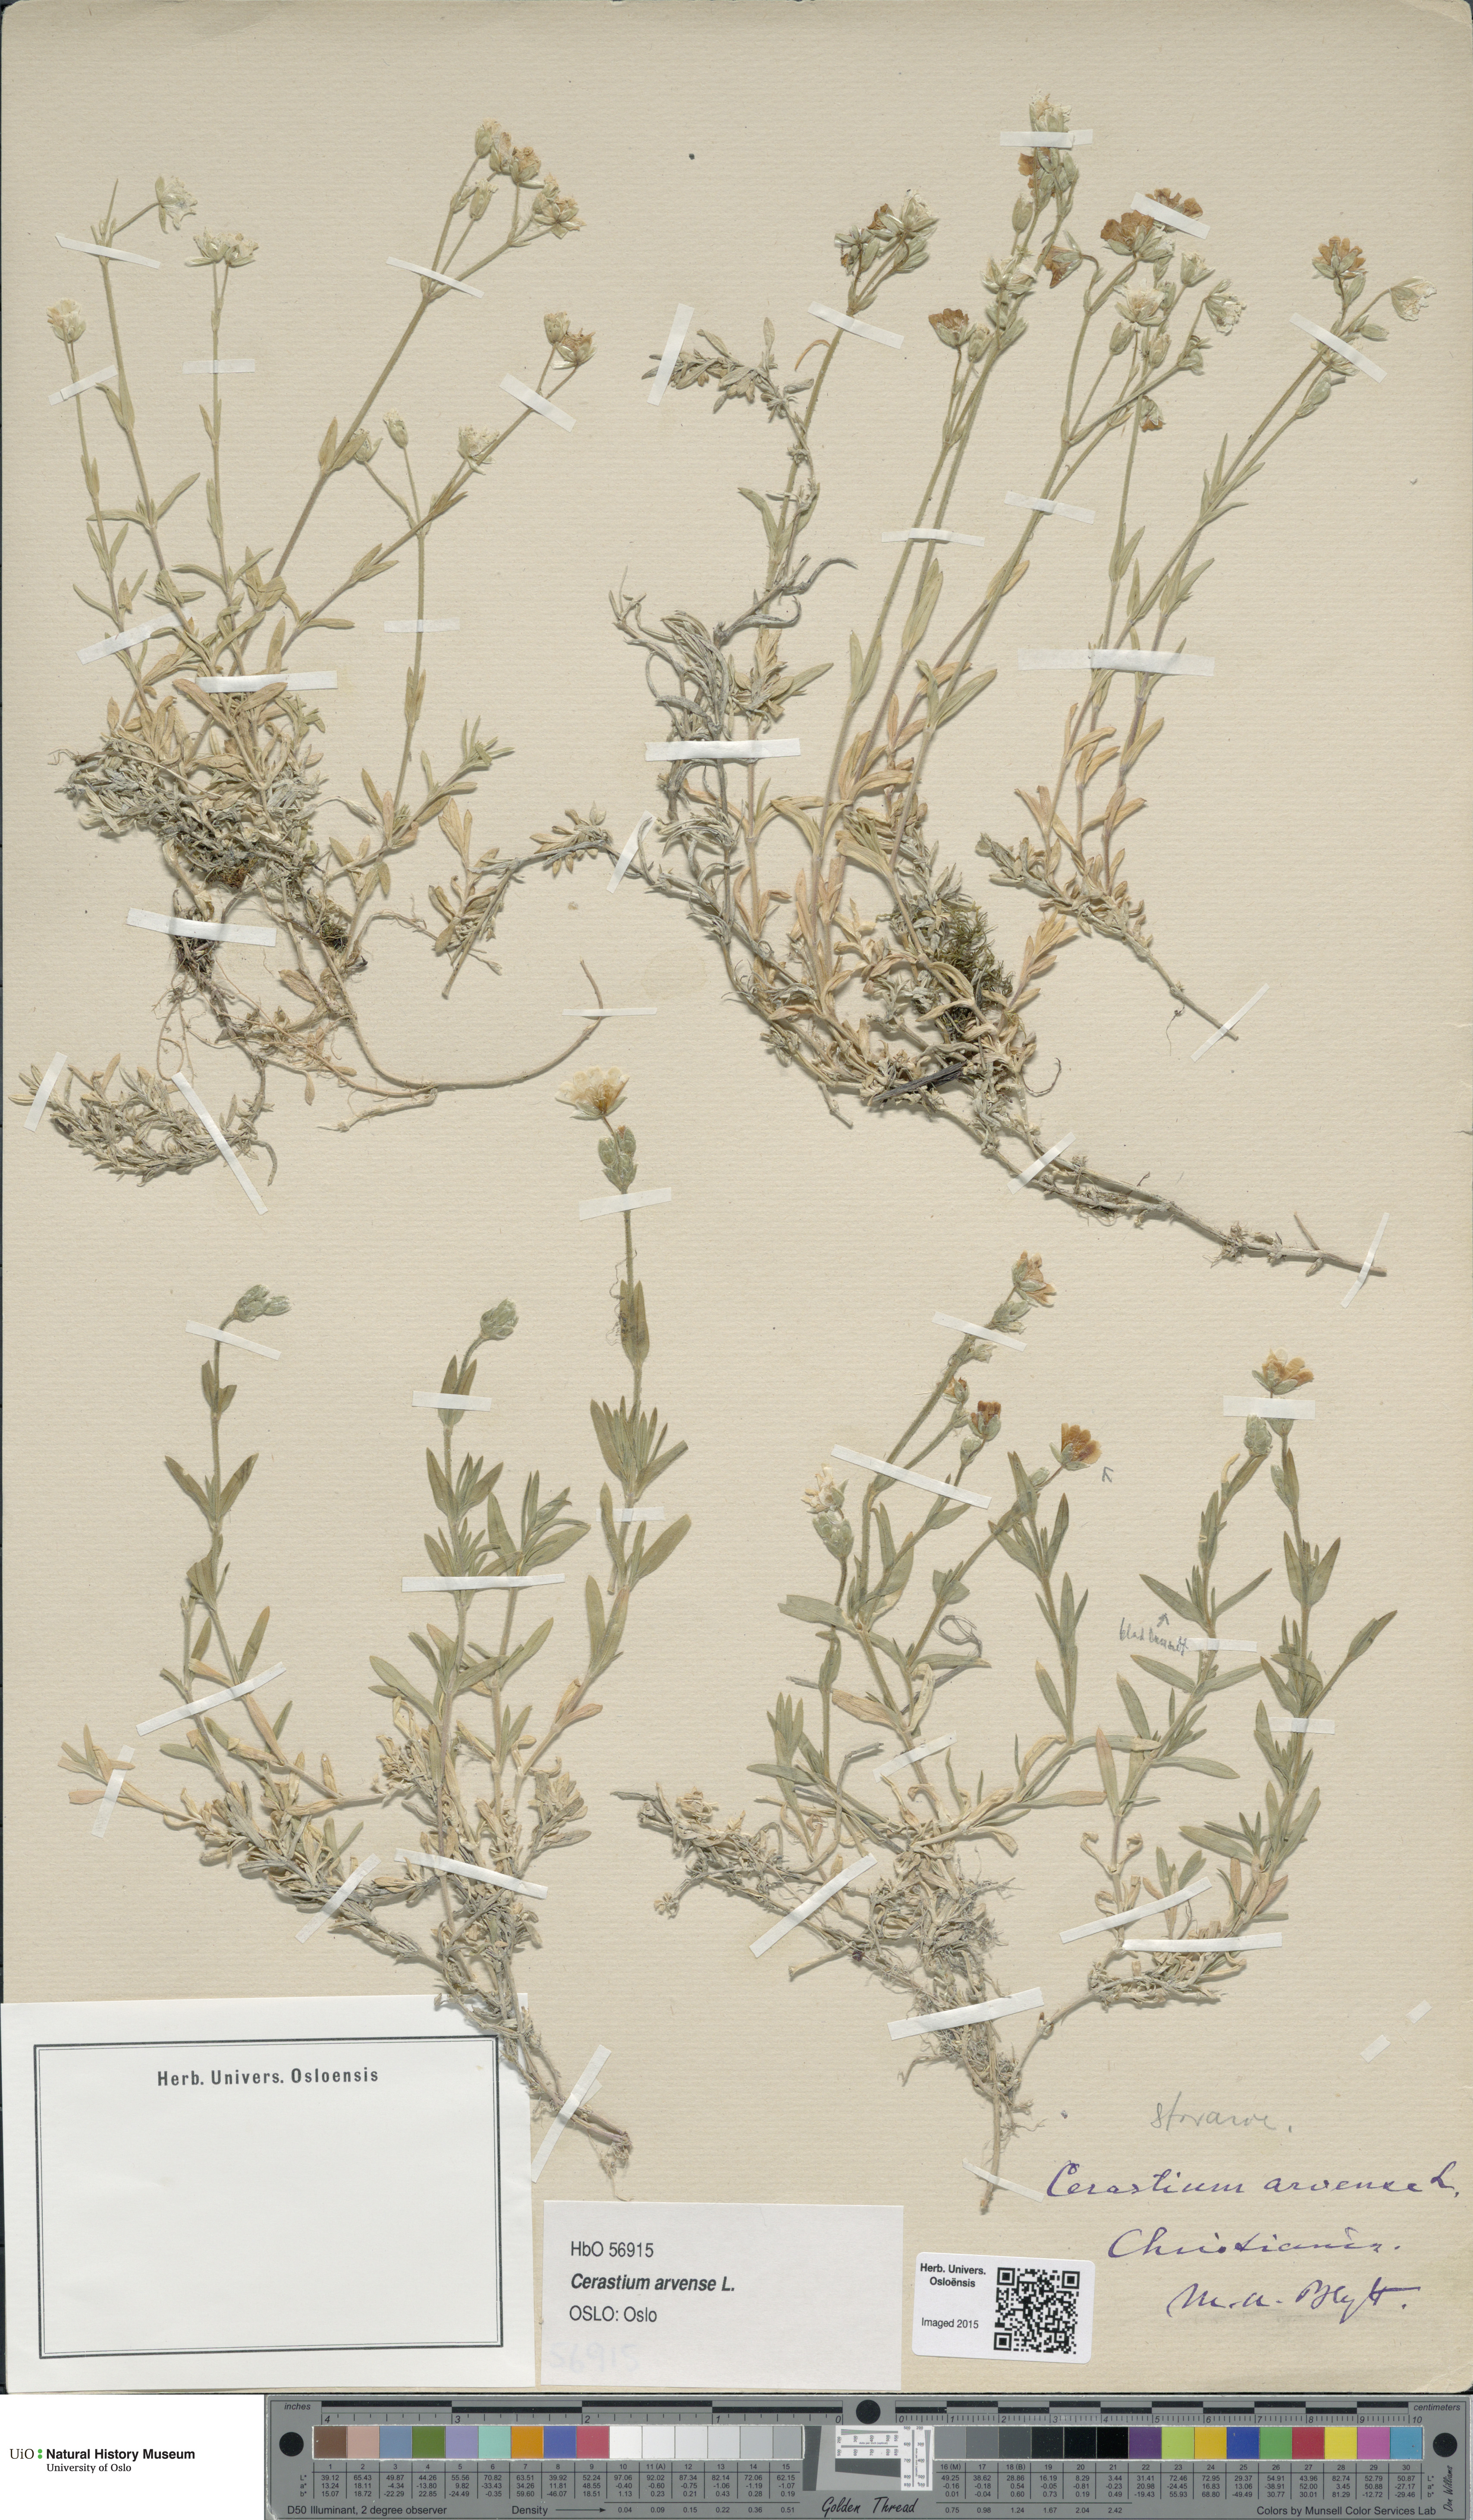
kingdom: Plantae
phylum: Tracheophyta
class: Magnoliopsida
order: Caryophyllales
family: Caryophyllaceae
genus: Cerastium
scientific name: Cerastium arvense
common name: Field mouse-ear
